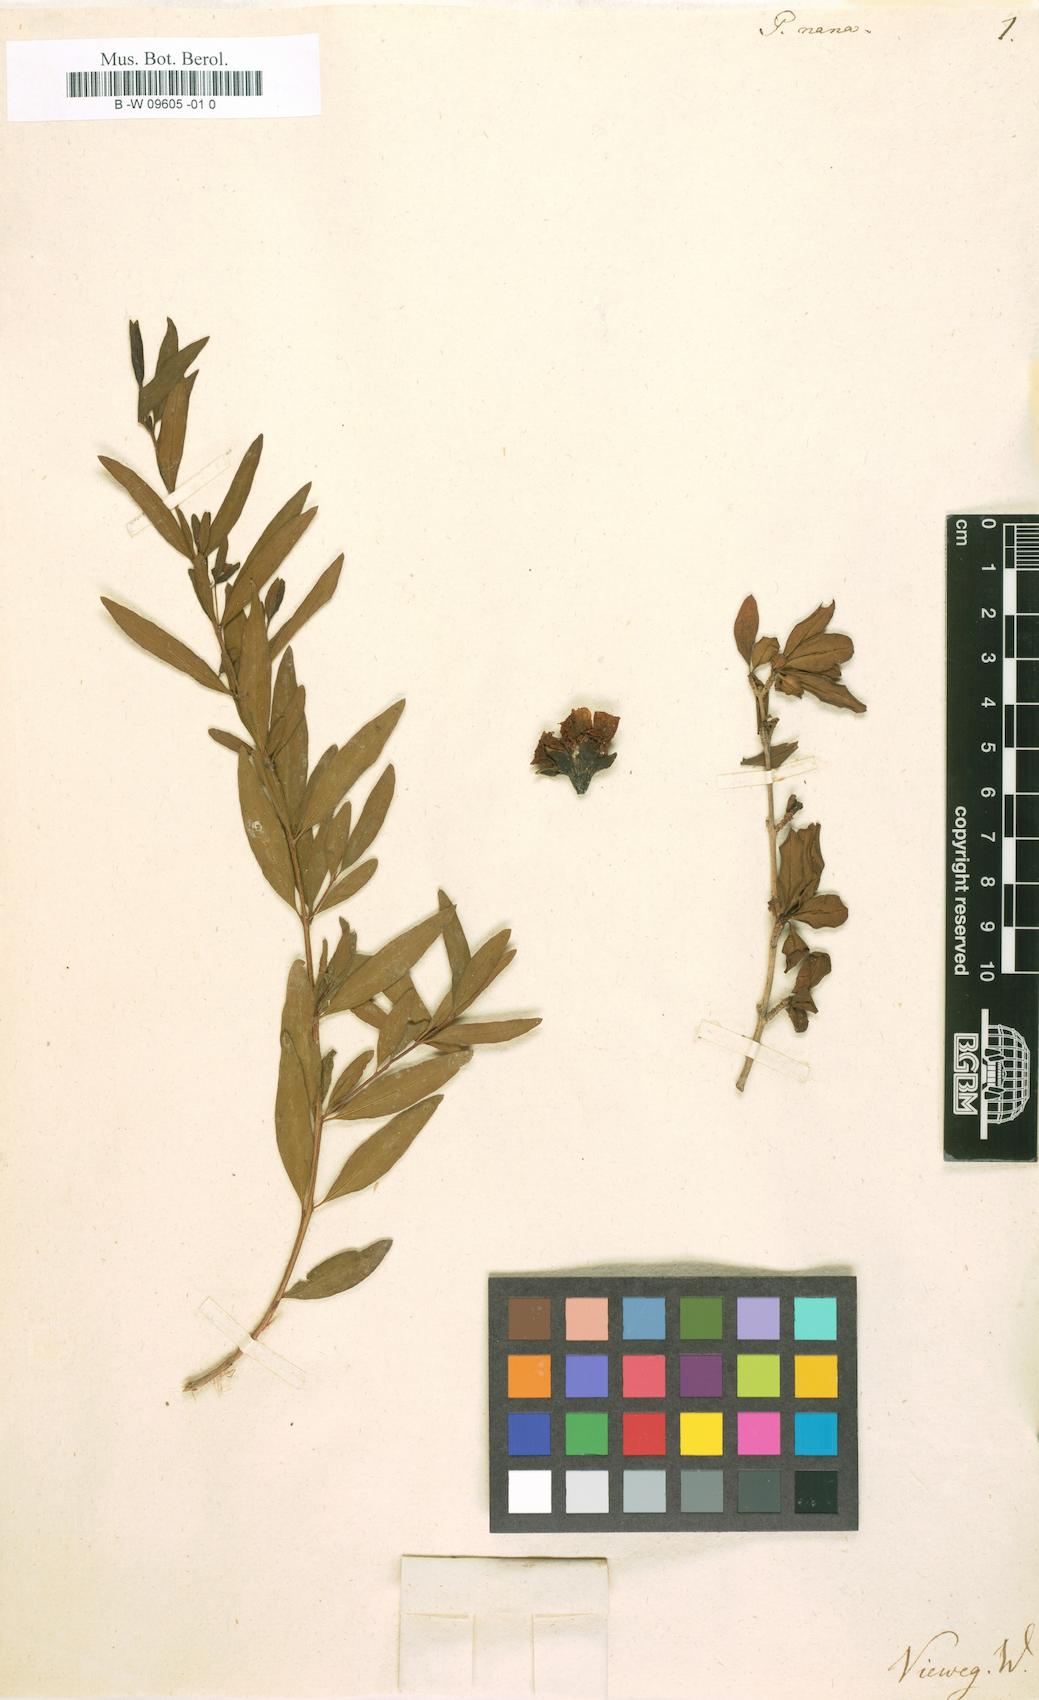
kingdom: Plantae
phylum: Tracheophyta
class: Magnoliopsida
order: Myrtales
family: Lythraceae
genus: Punica
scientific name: Punica granatum
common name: Pomegranate
